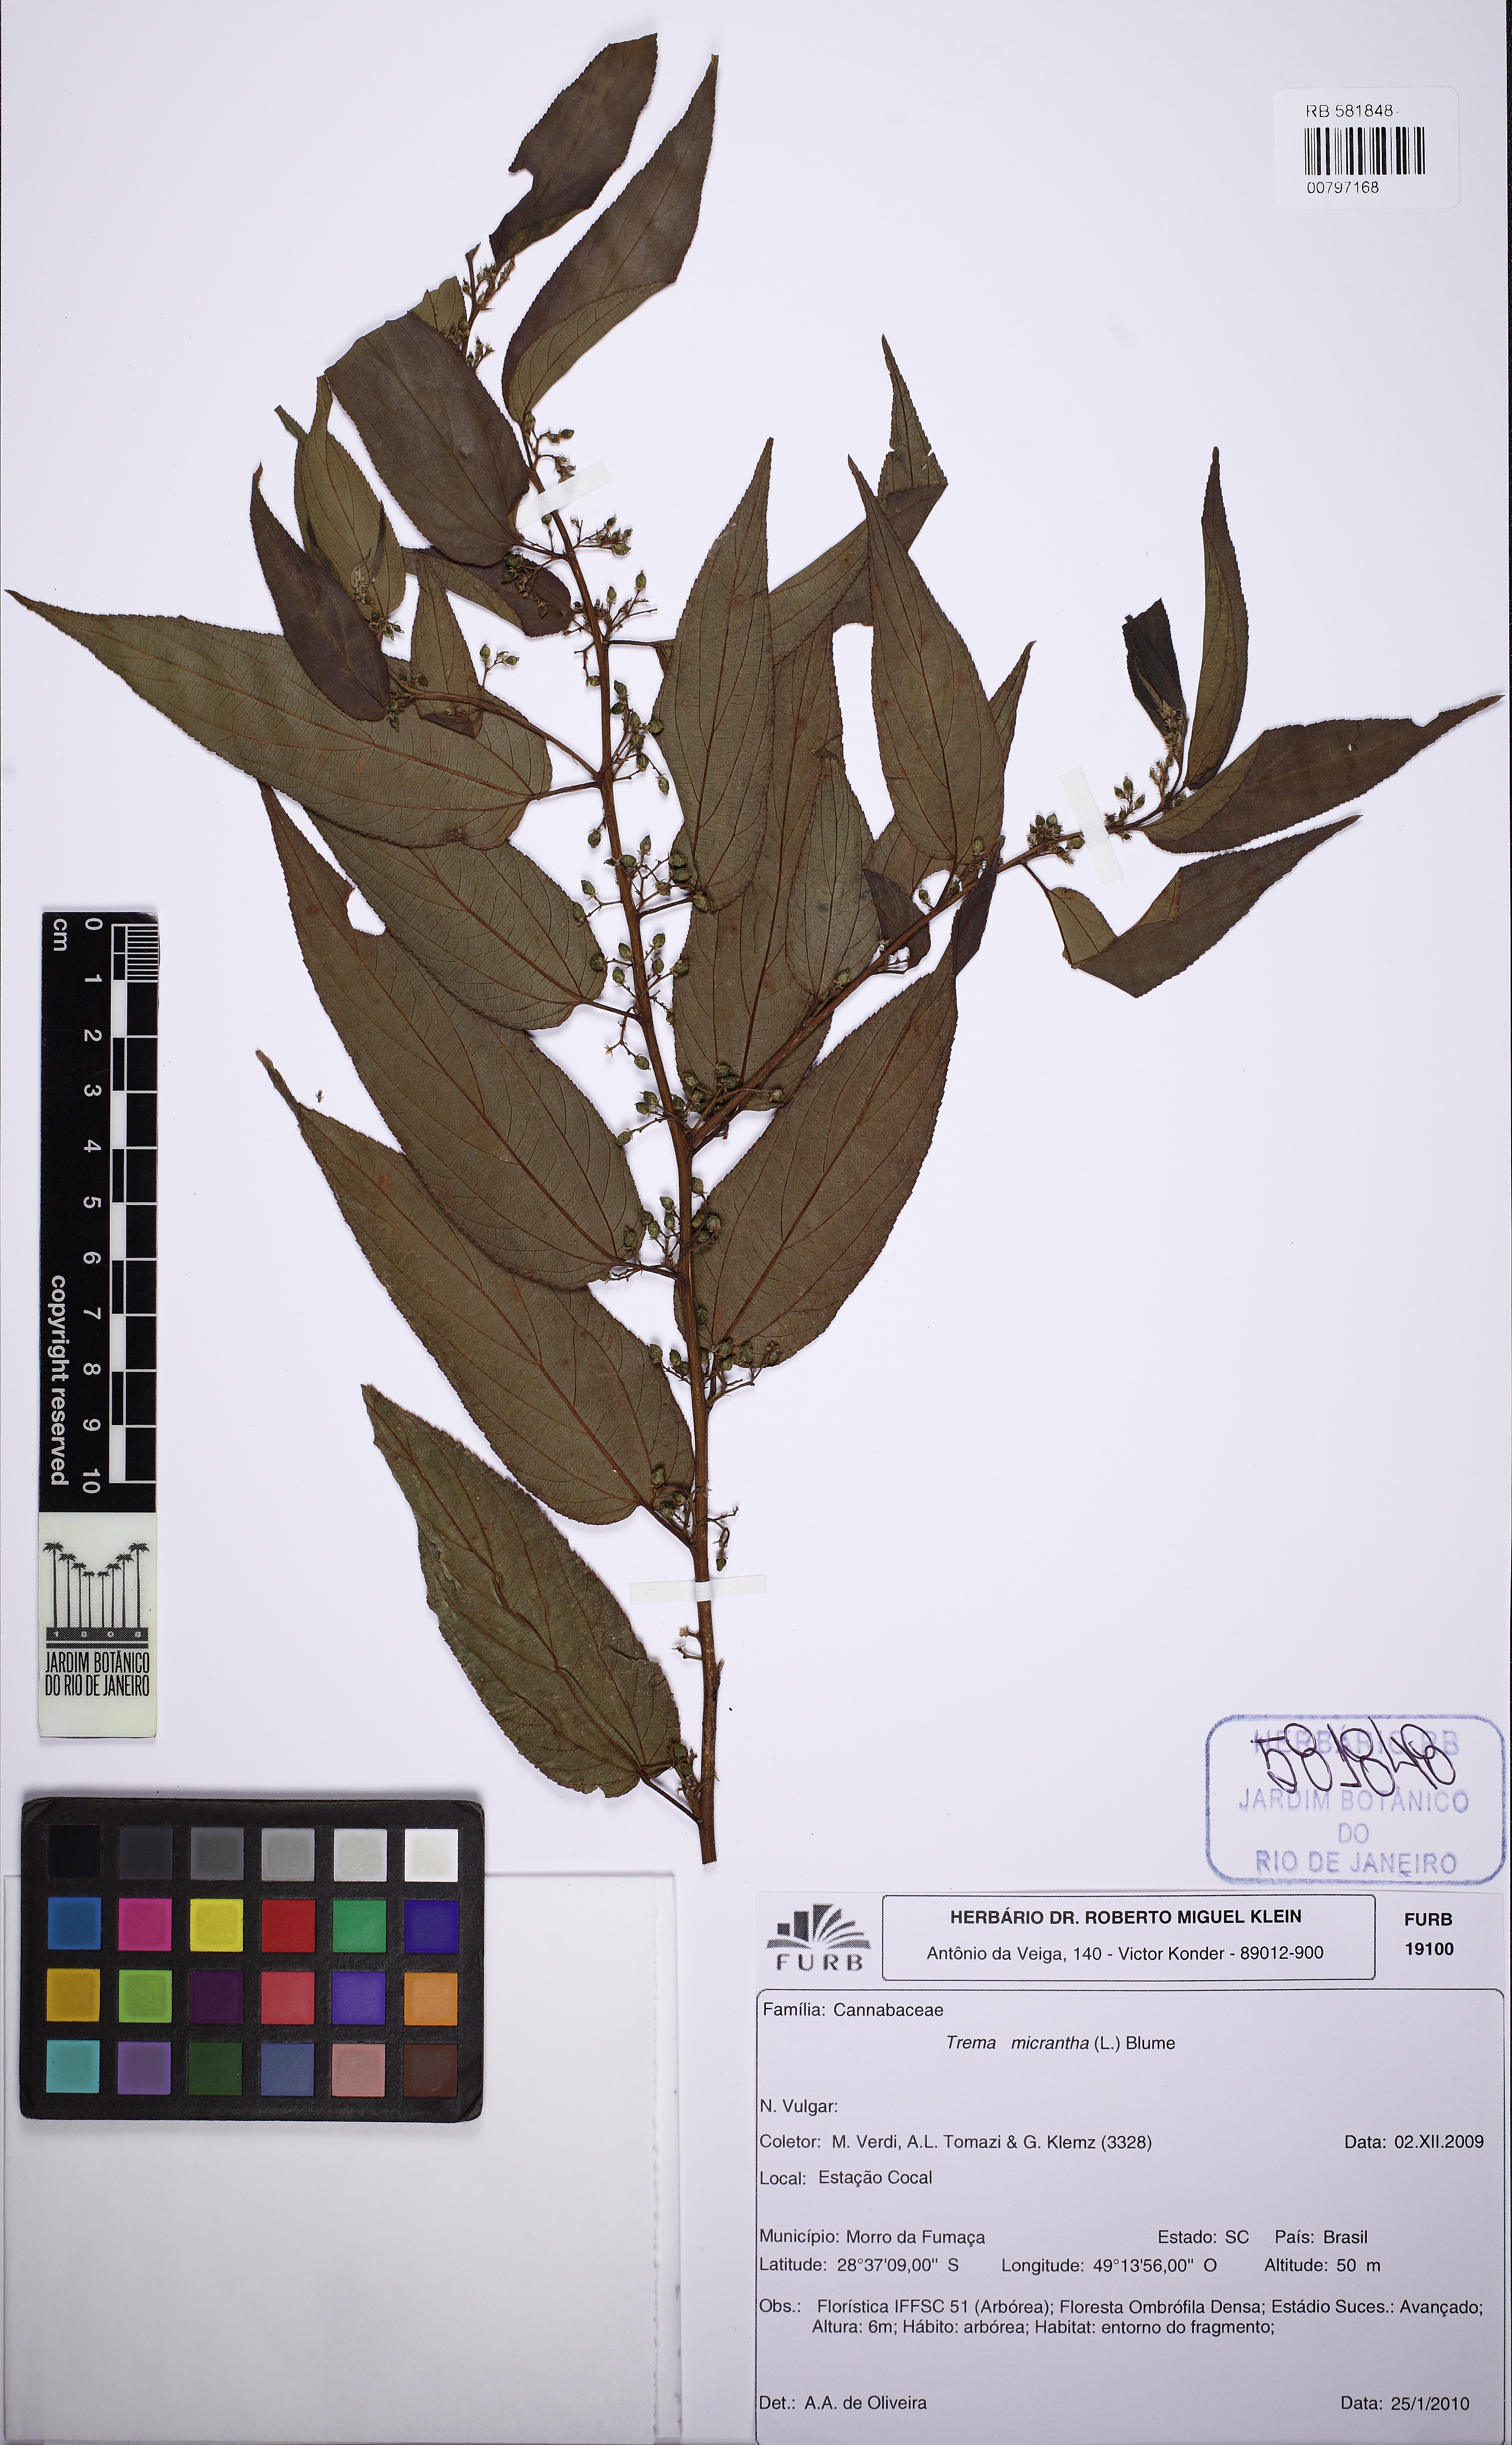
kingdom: Plantae
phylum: Tracheophyta
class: Magnoliopsida
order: Rosales
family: Cannabaceae
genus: Trema
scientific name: Trema micranthum
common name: Jamaican nettletree
